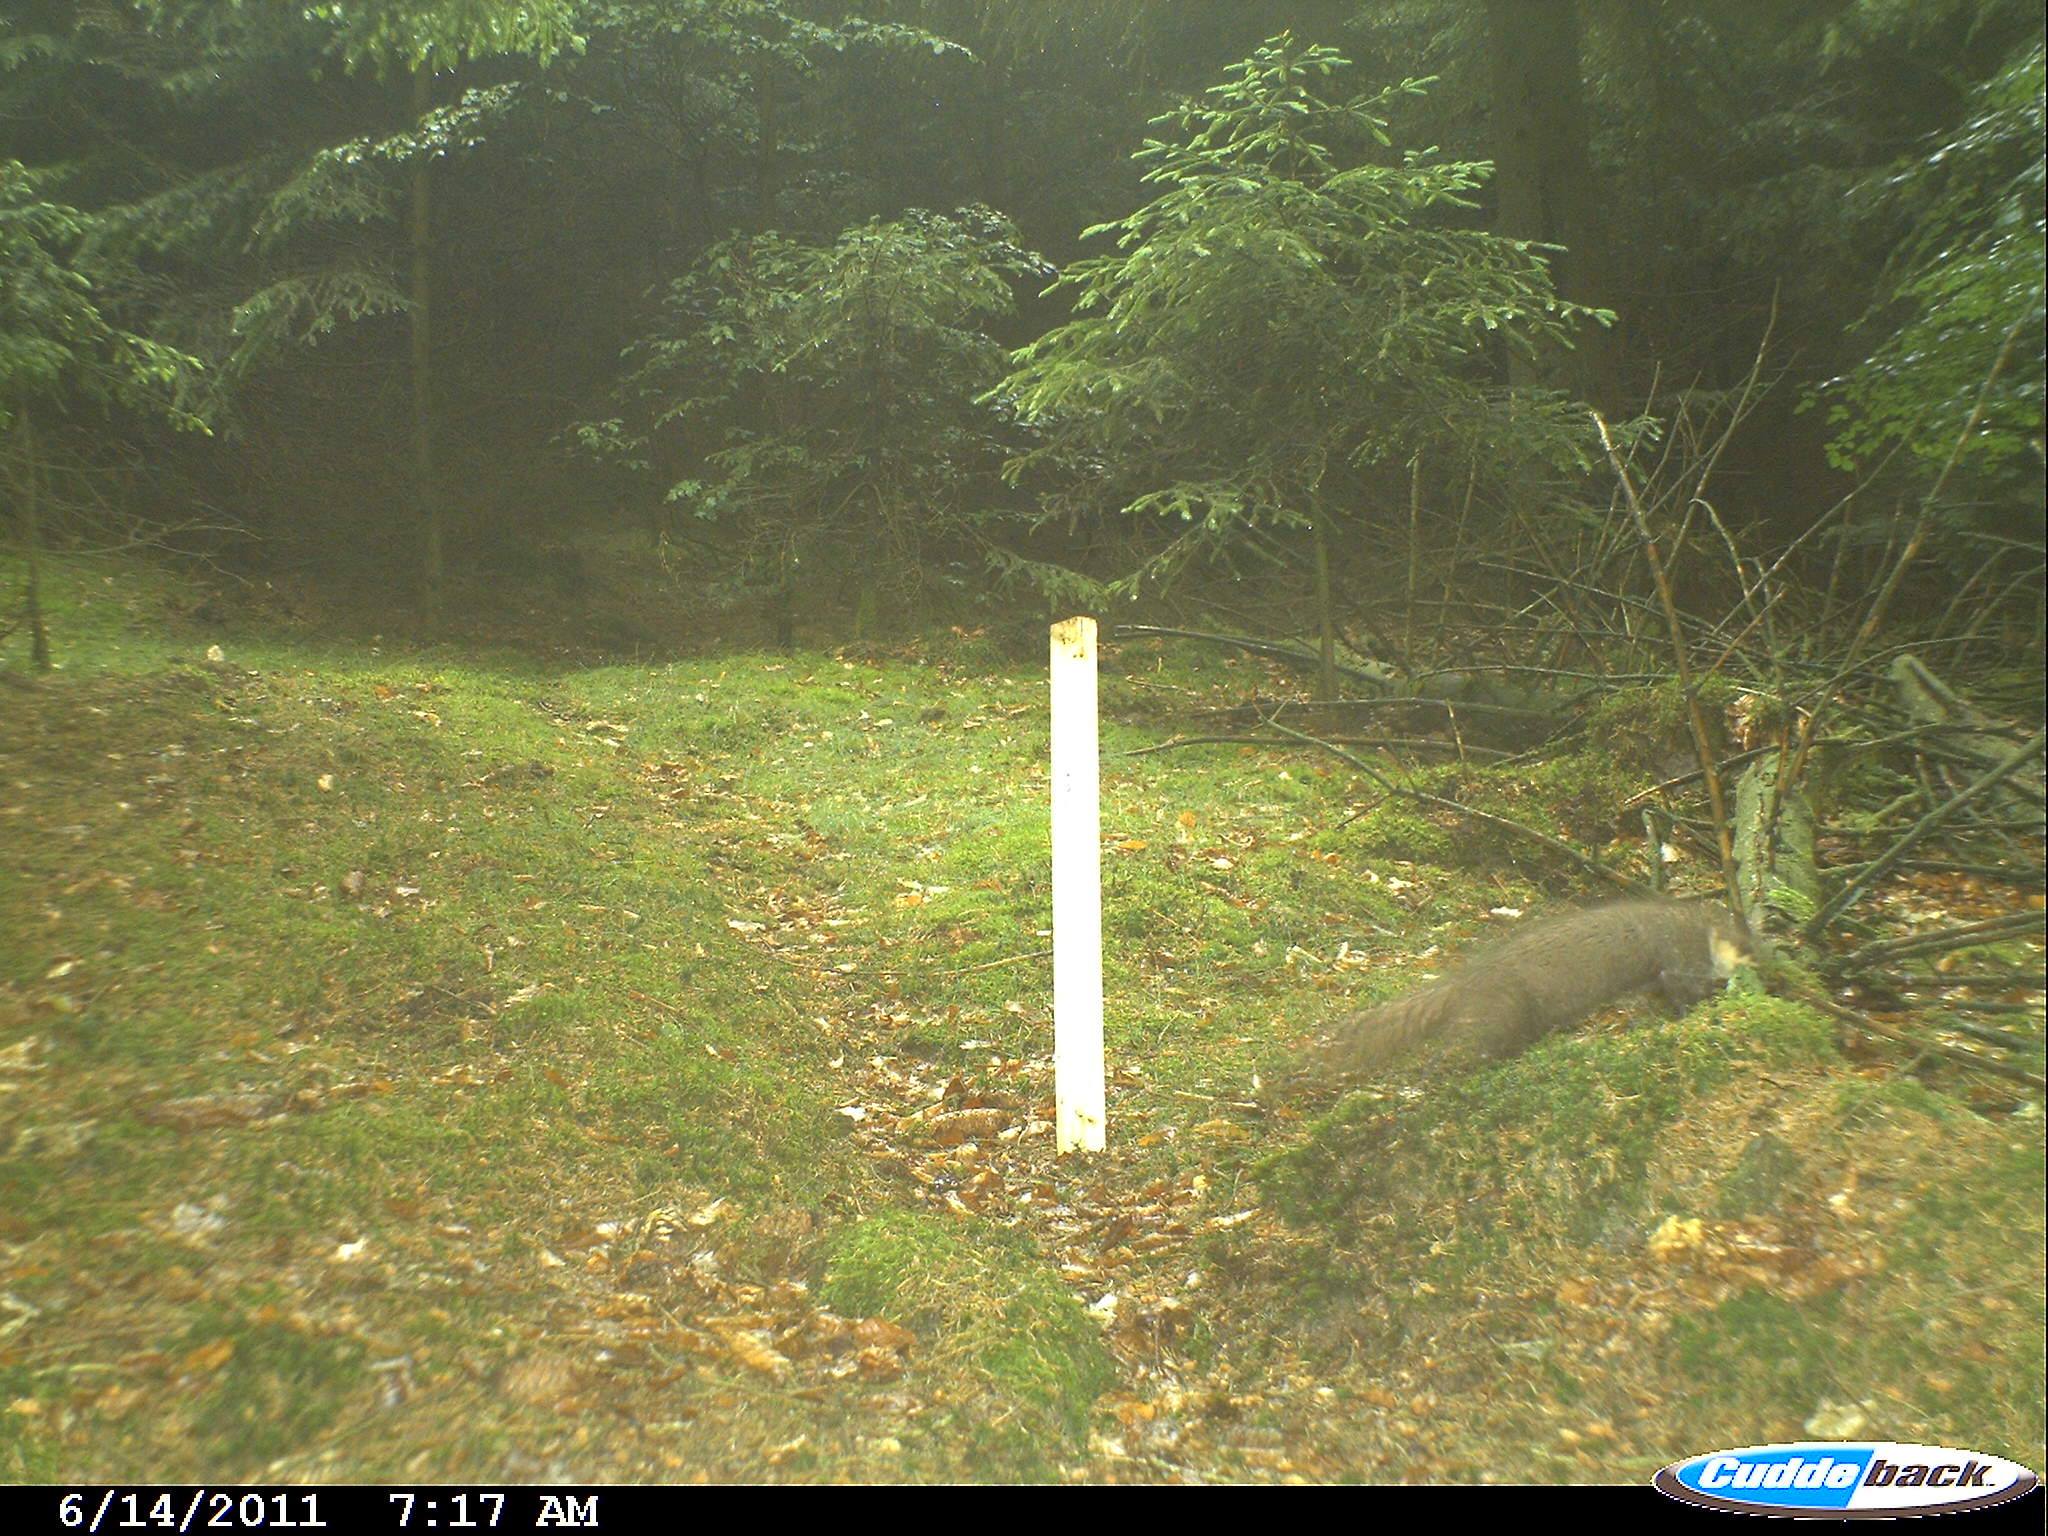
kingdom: Animalia
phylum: Chordata
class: Mammalia
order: Carnivora
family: Mustelidae
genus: Martes
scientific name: Martes
